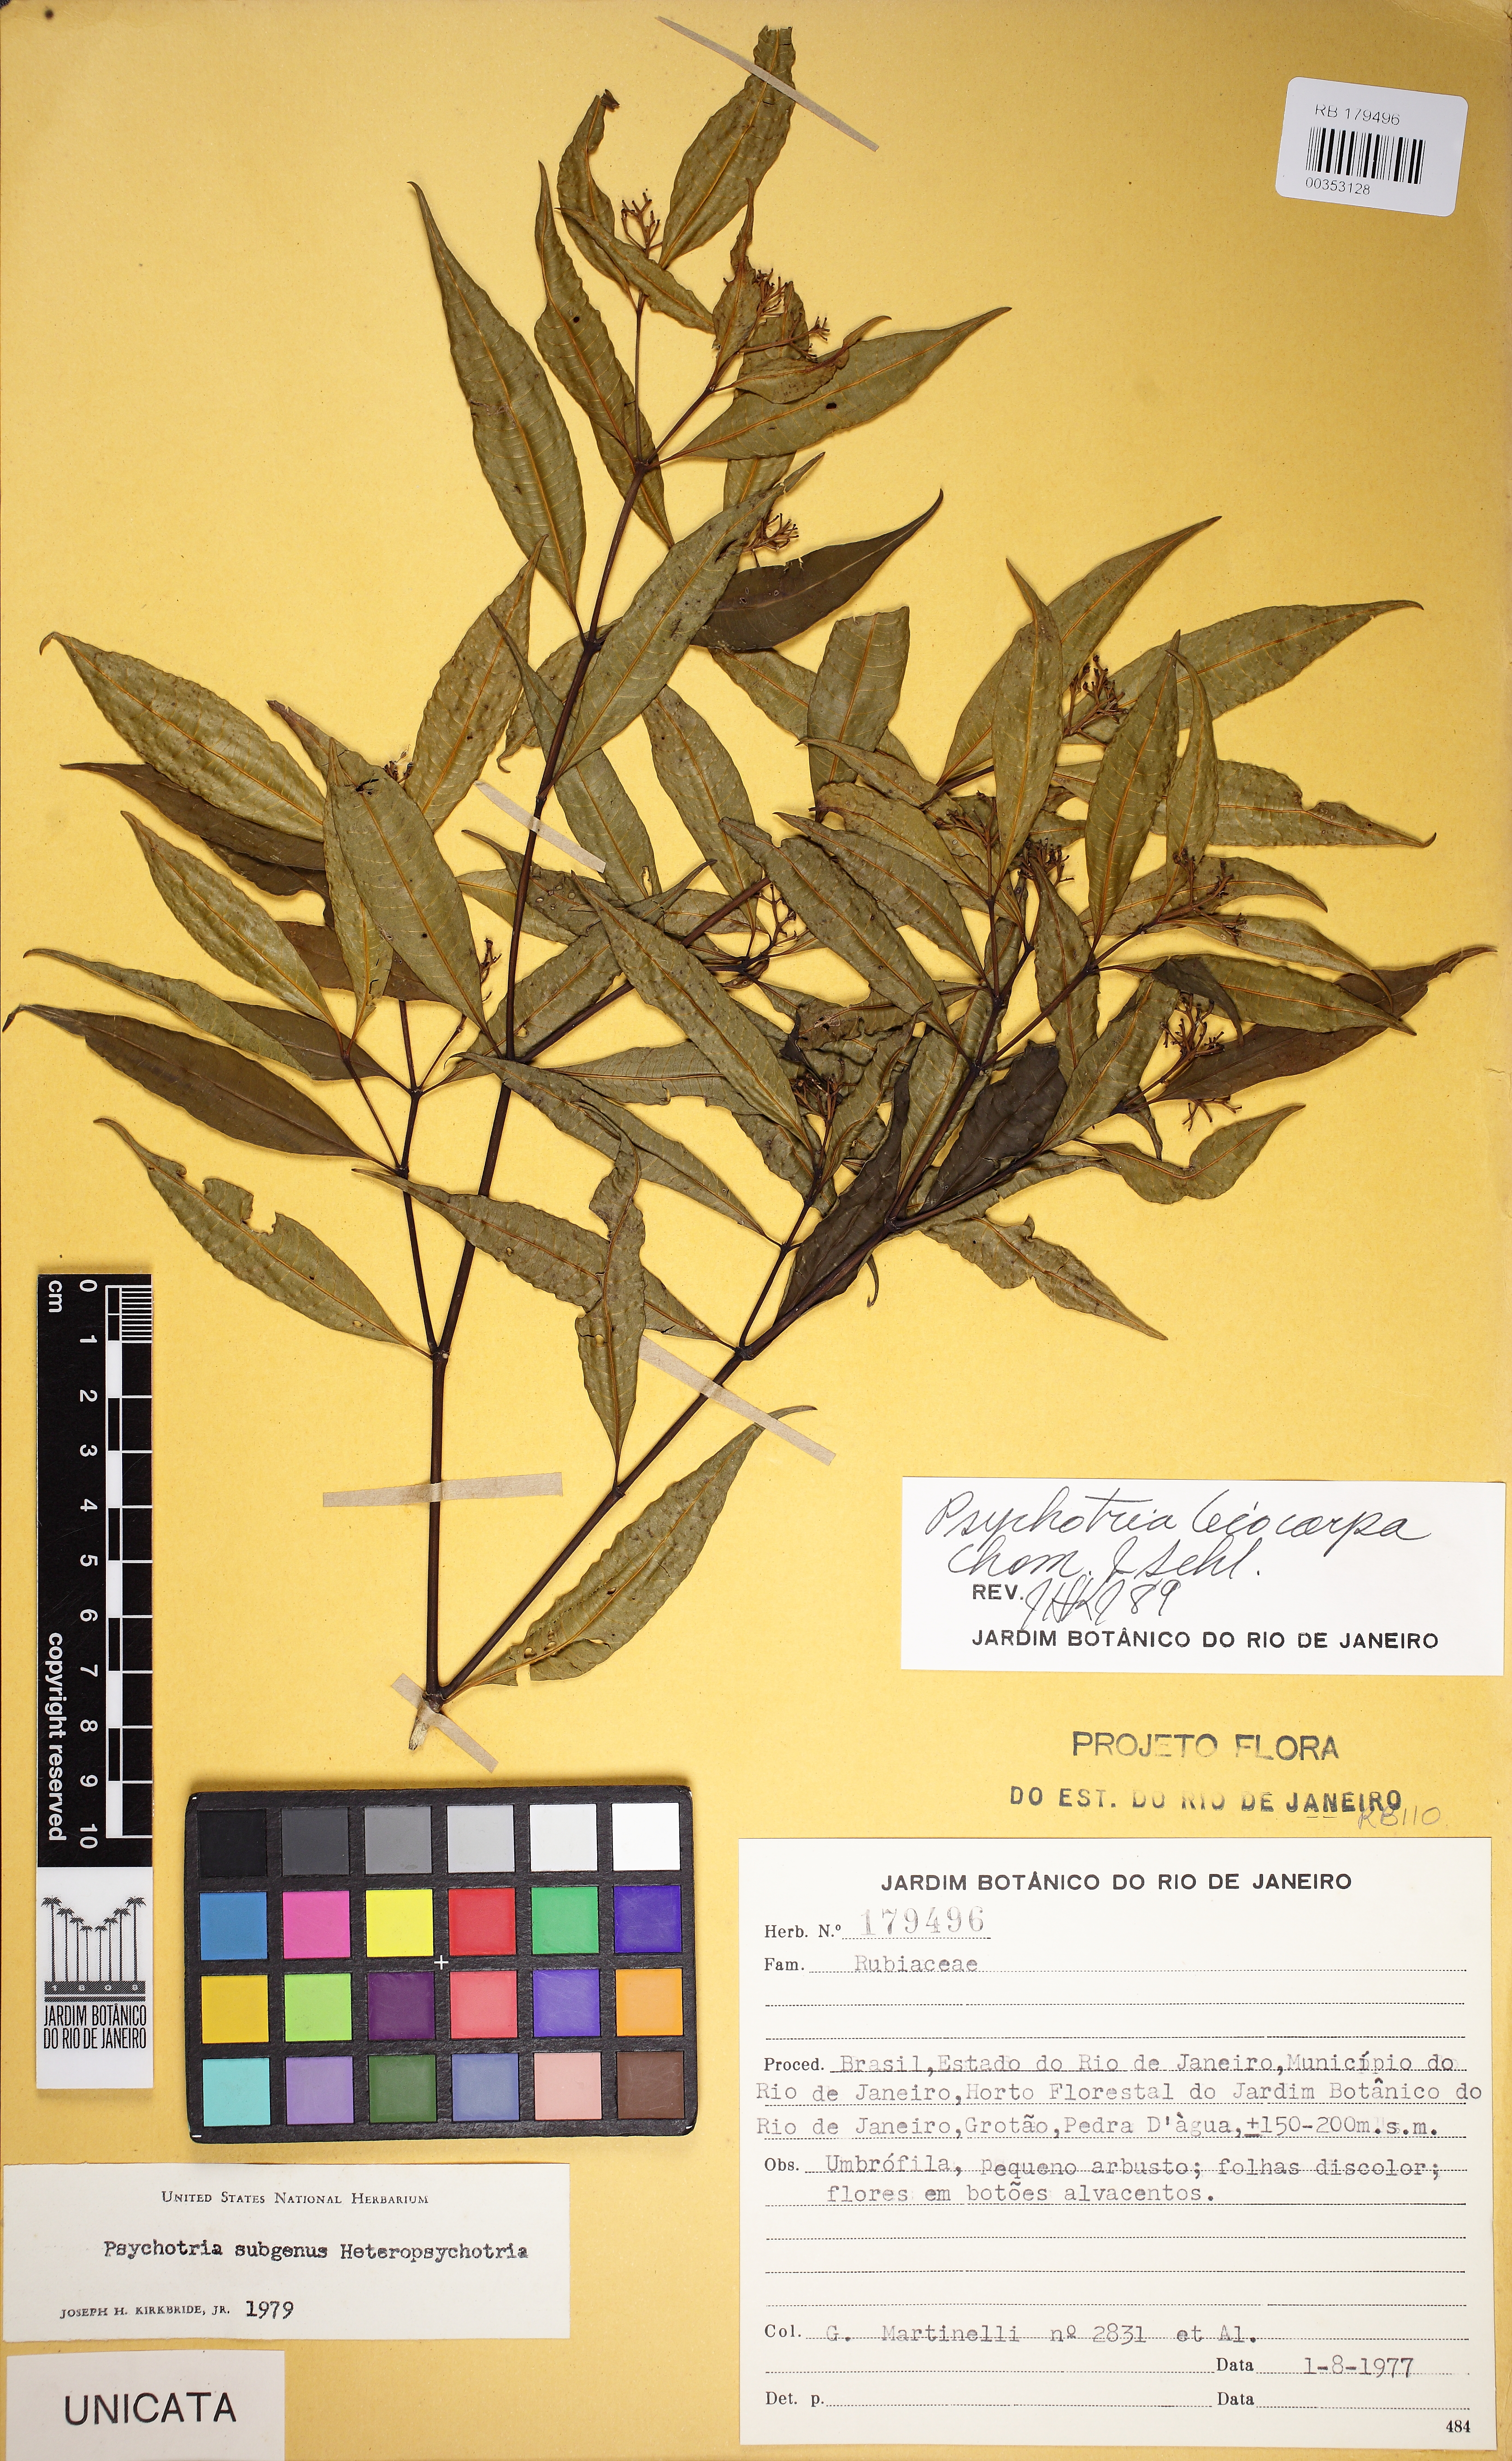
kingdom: Plantae
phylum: Tracheophyta
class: Magnoliopsida
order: Gentianales
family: Rubiaceae
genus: Psychotria
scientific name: Psychotria leiocarpa
